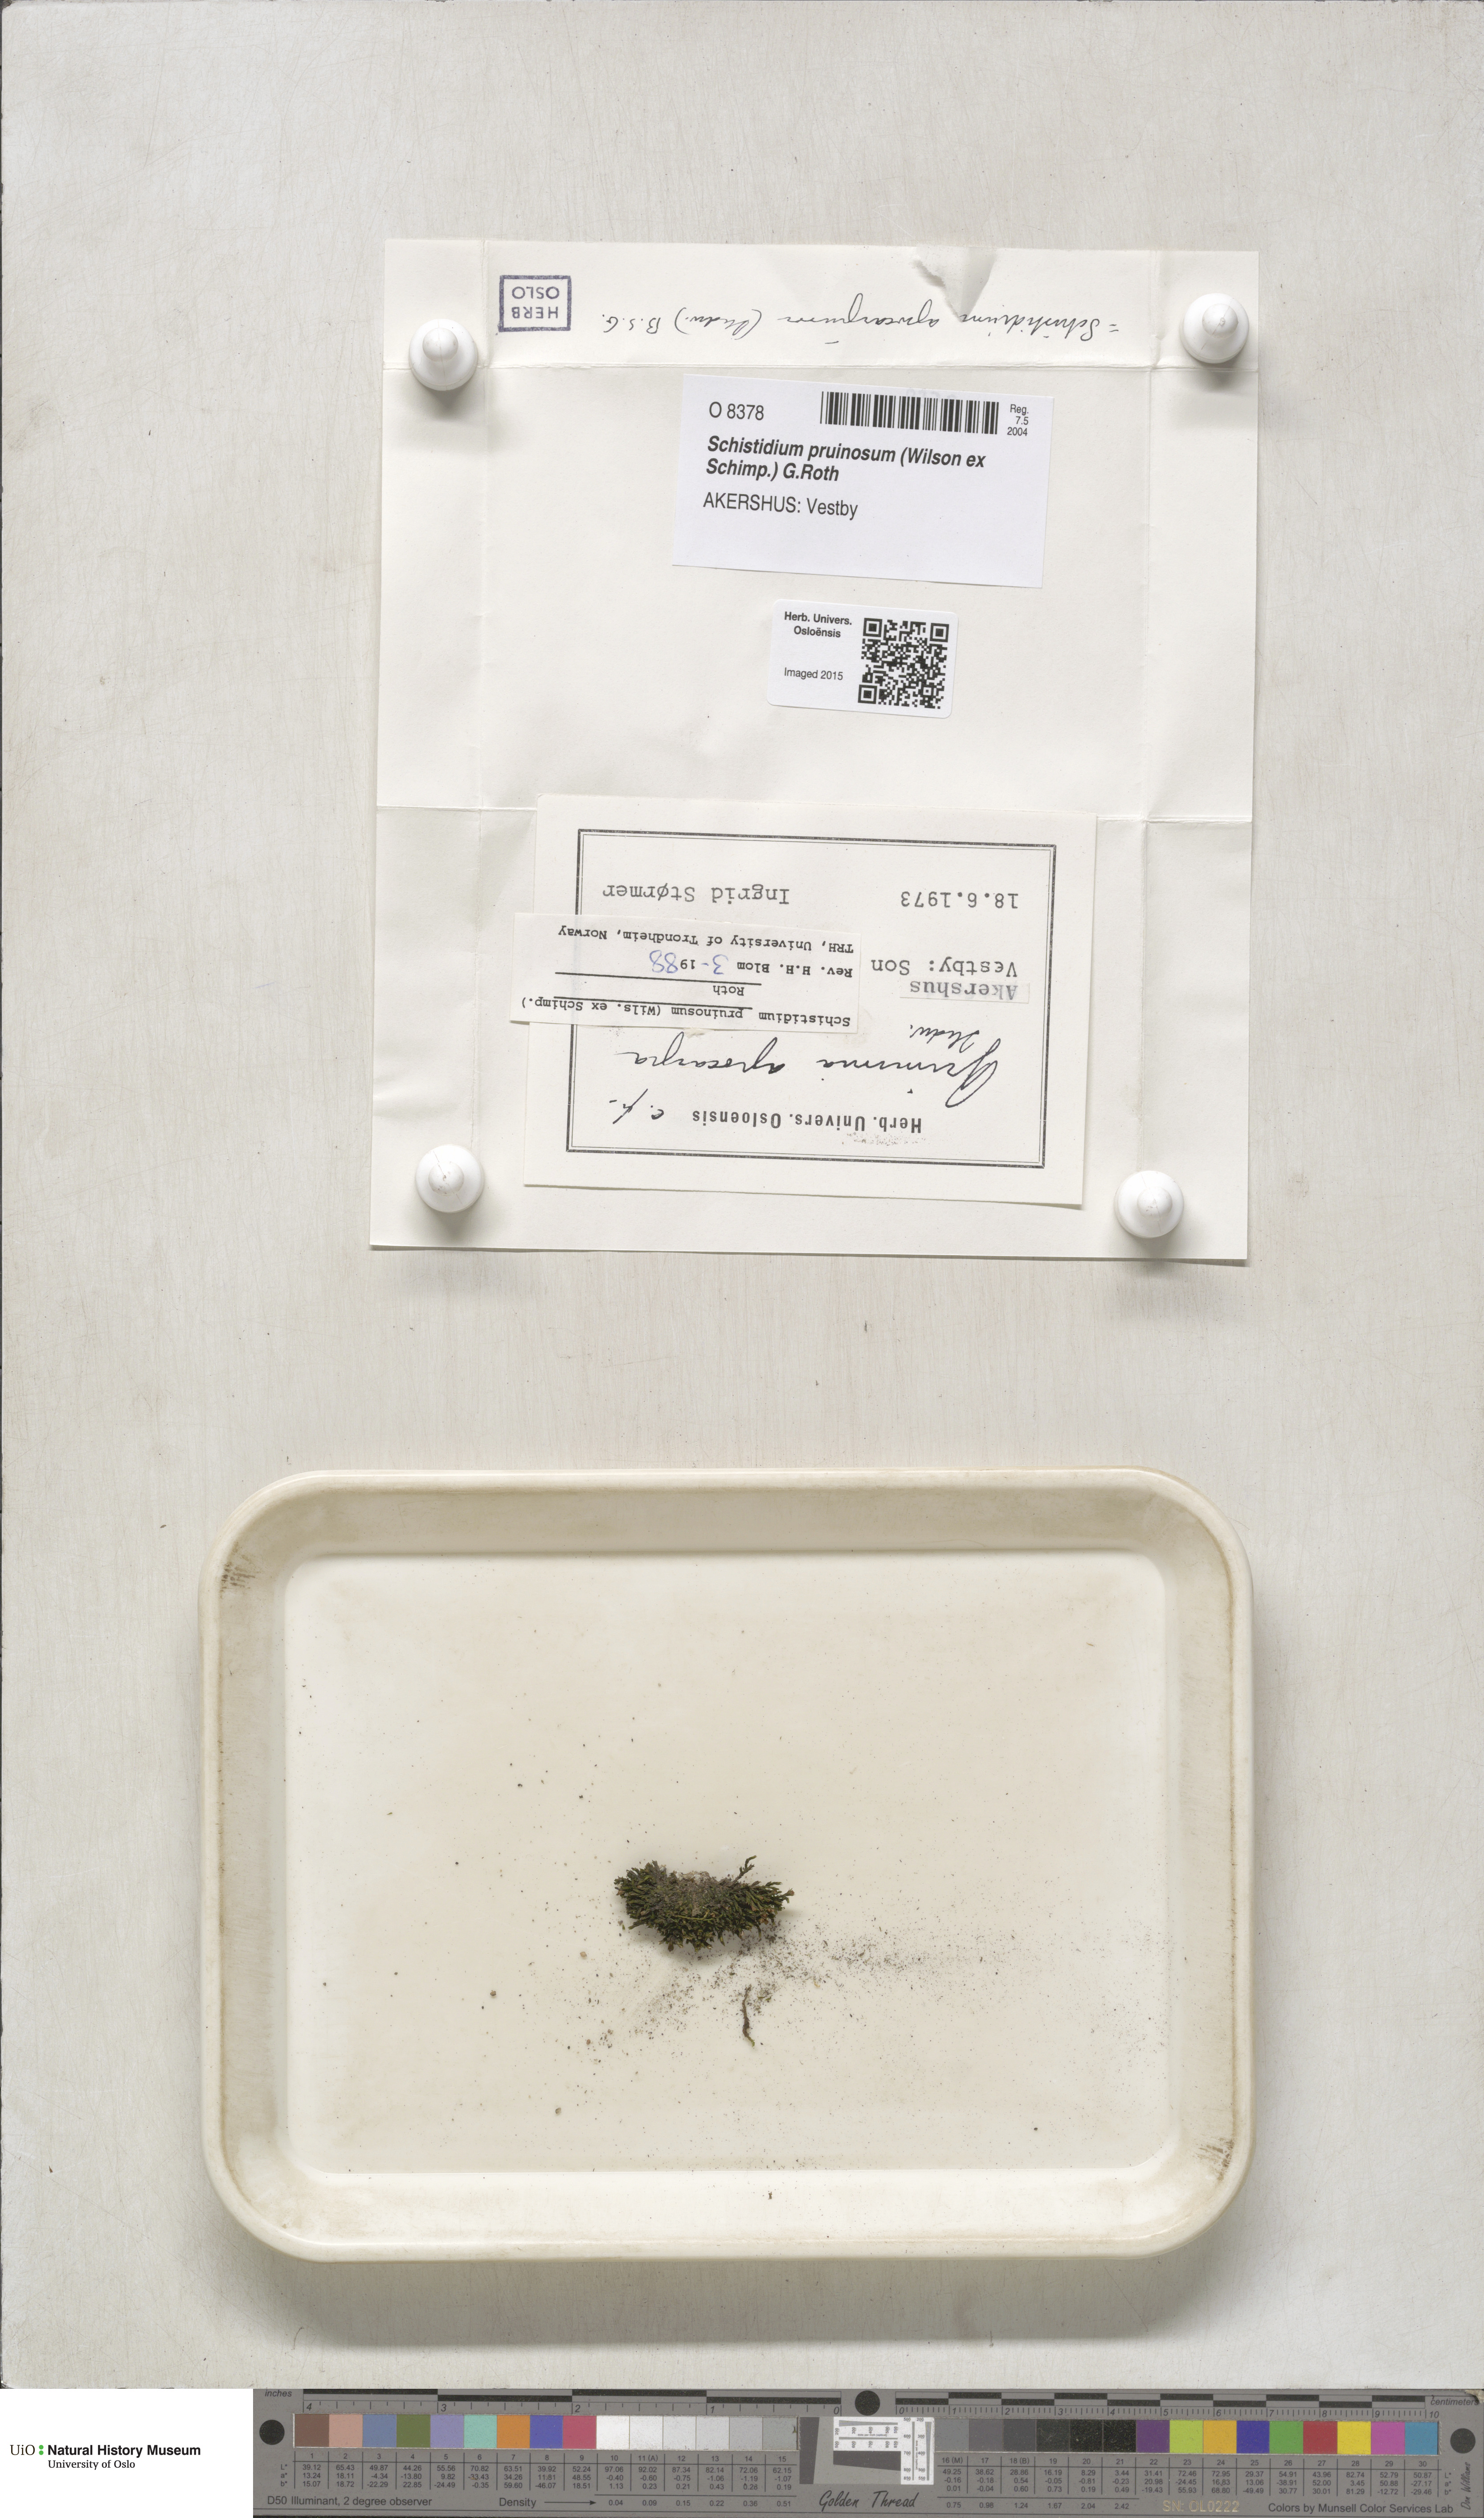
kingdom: Plantae
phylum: Bryophyta
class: Bryopsida
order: Grimmiales
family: Grimmiaceae
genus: Schistidium
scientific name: Schistidium pruinosum
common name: Mealy grimmia
